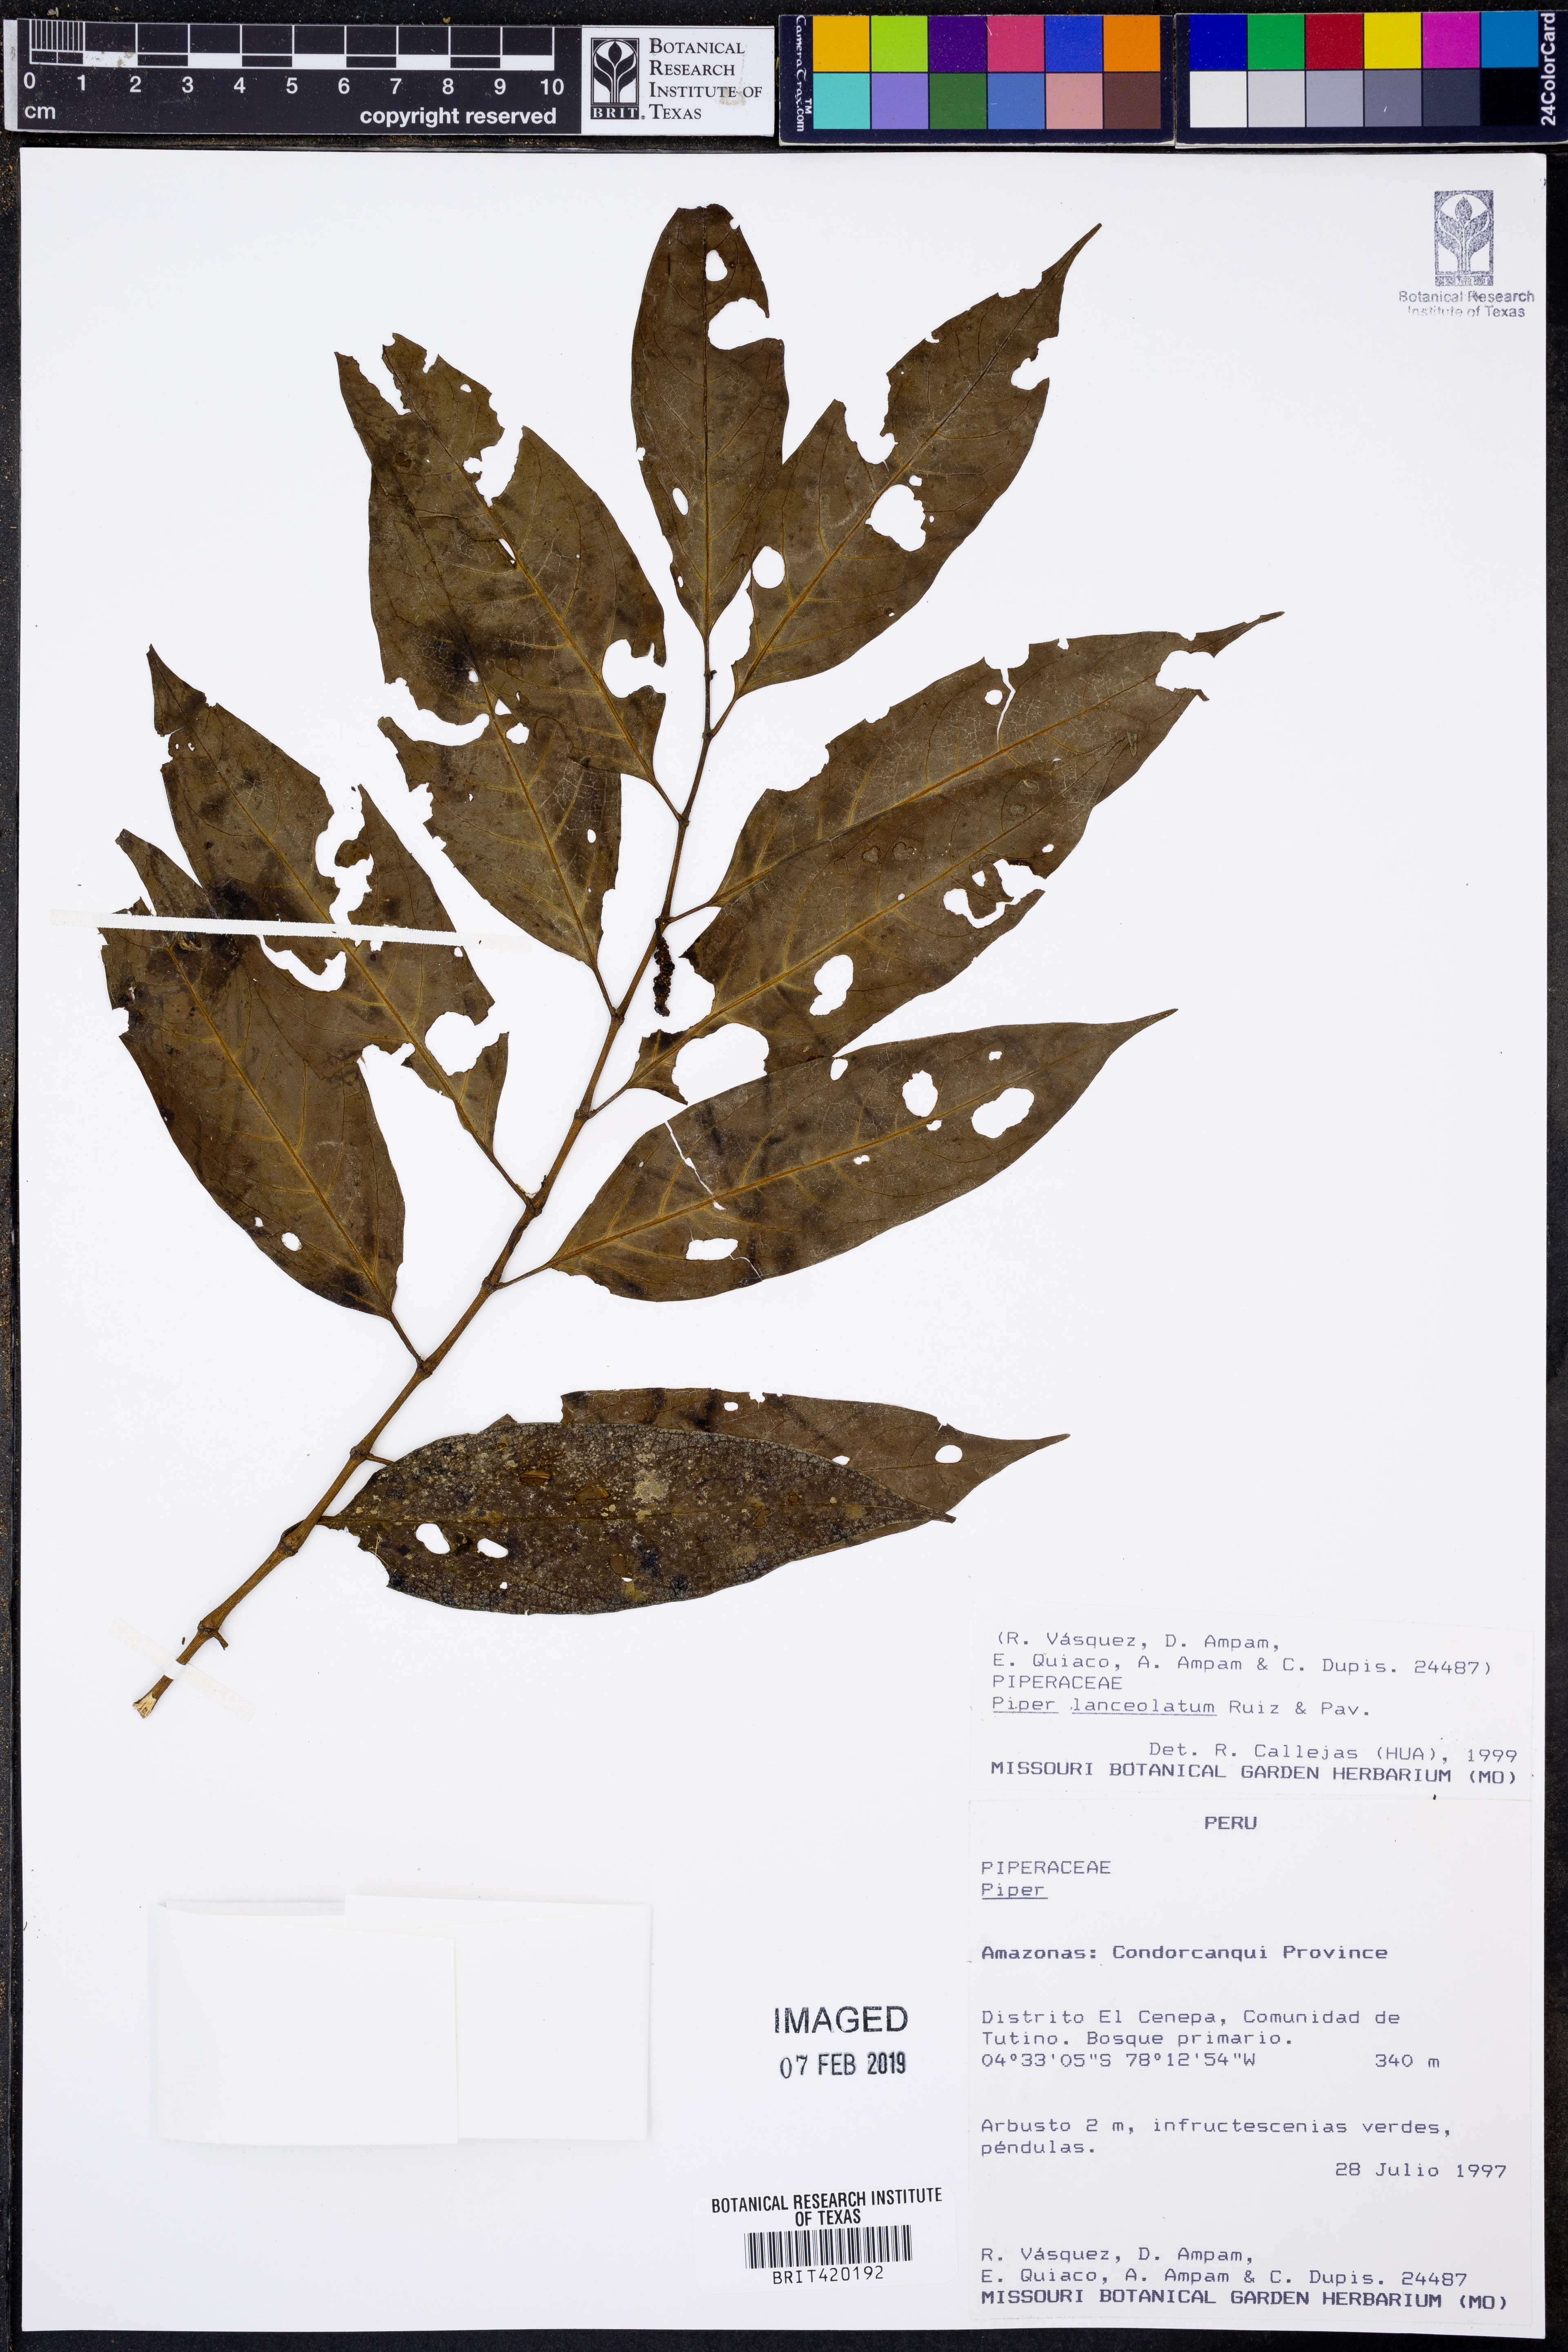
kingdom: Plantae
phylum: Tracheophyta
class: Magnoliopsida
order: Piperales
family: Piperaceae
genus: Piper
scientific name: Piper lanceolatum
